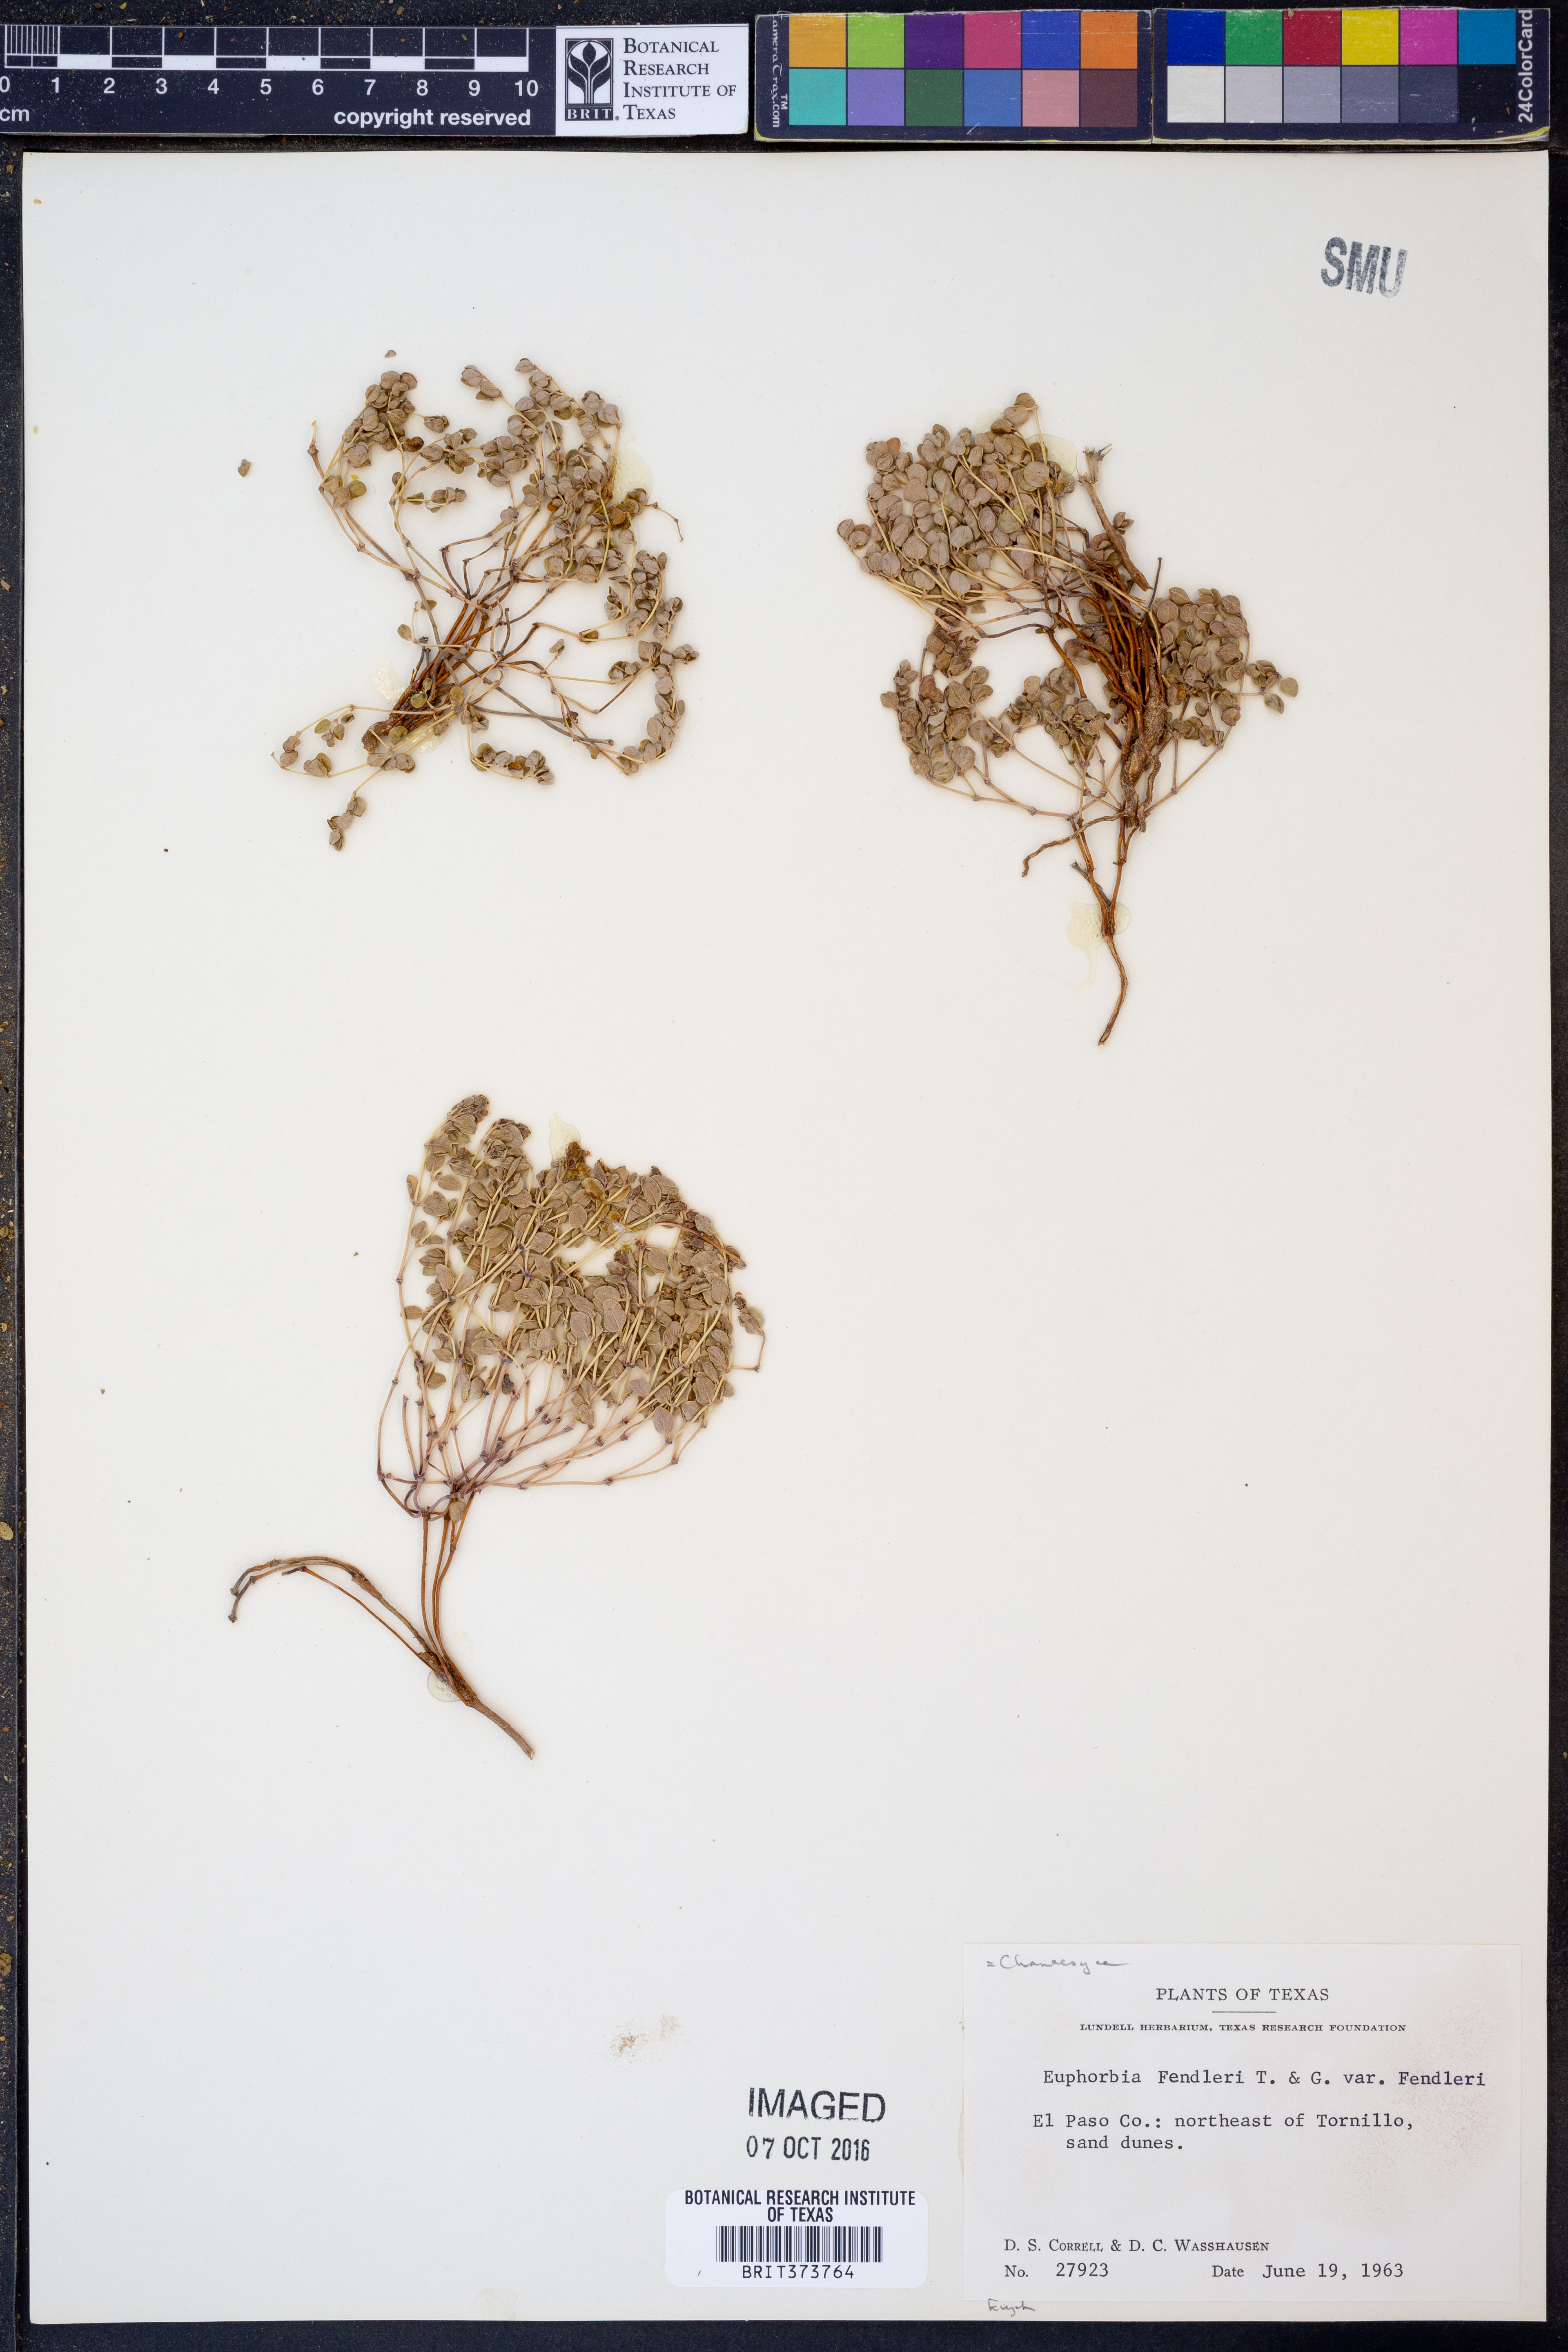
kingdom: Plantae
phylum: Tracheophyta
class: Magnoliopsida
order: Malpighiales
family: Euphorbiaceae
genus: Euphorbia
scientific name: Euphorbia fendleri
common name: Fendler's euphorbia
